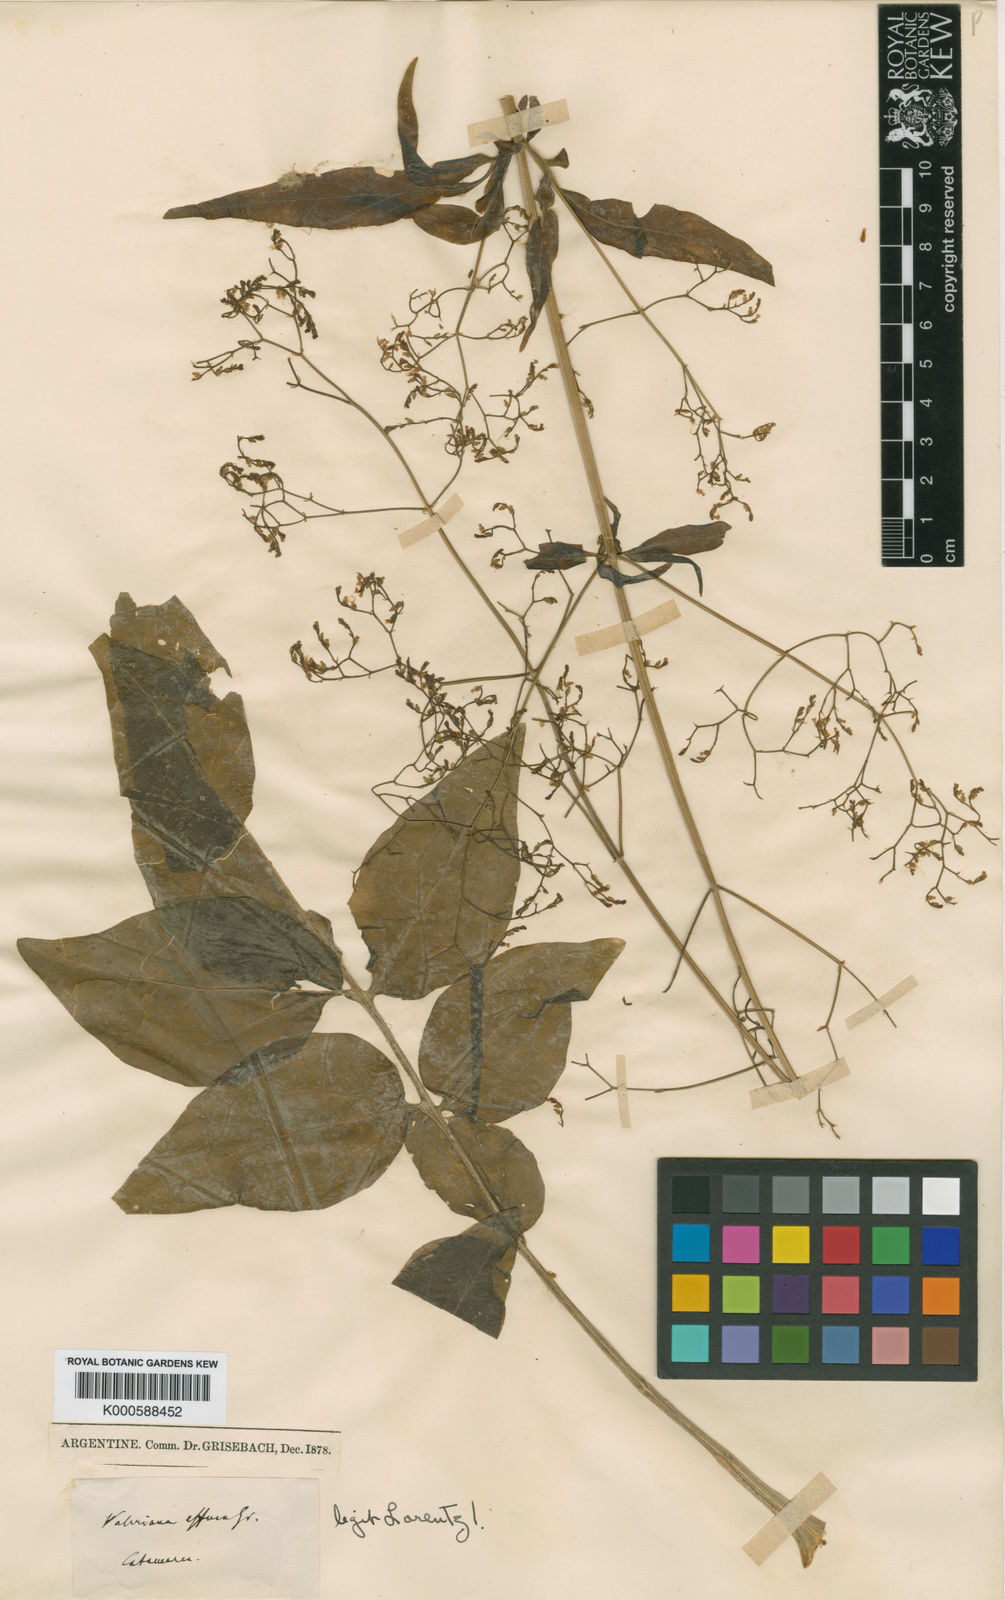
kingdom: Plantae
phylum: Tracheophyta
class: Magnoliopsida
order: Dipsacales
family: Caprifoliaceae
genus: Valeriana
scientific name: Valeriana effusa
